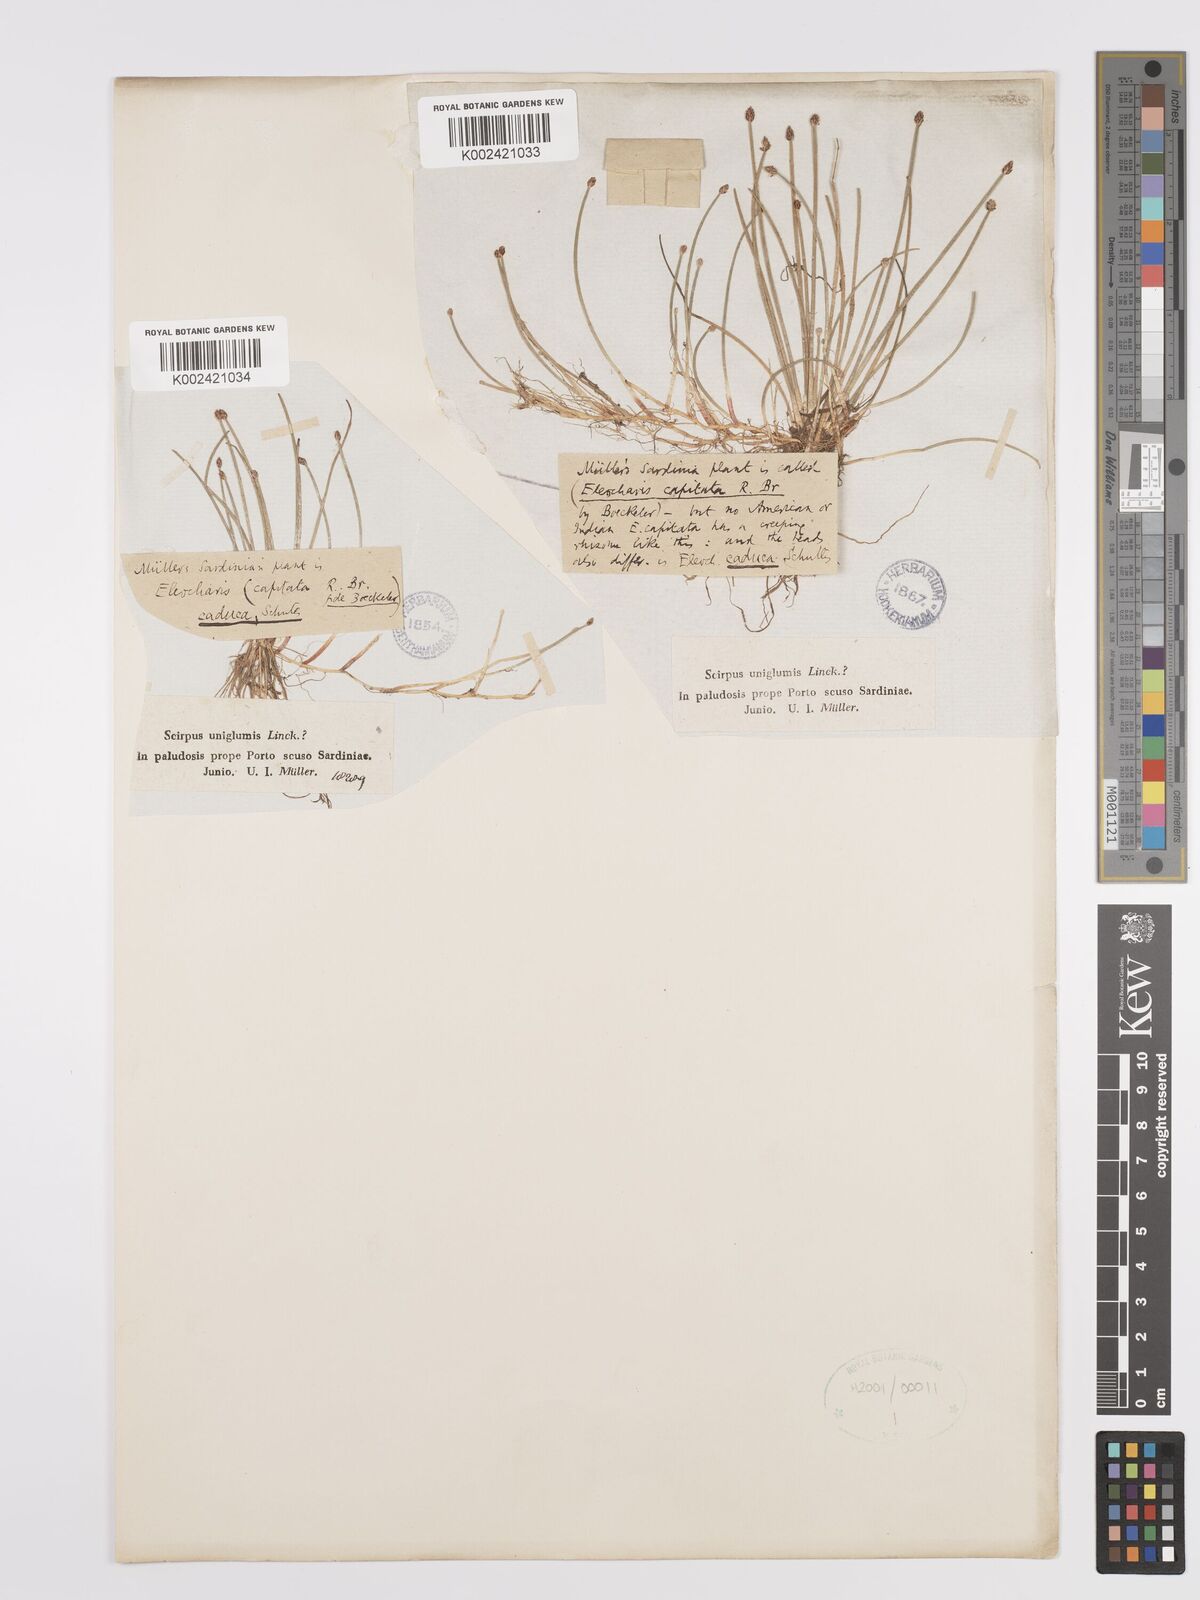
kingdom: Plantae
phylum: Tracheophyta
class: Liliopsida
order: Poales
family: Cyperaceae
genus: Eleocharis
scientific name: Eleocharis geniculata
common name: Canada spikesedge
